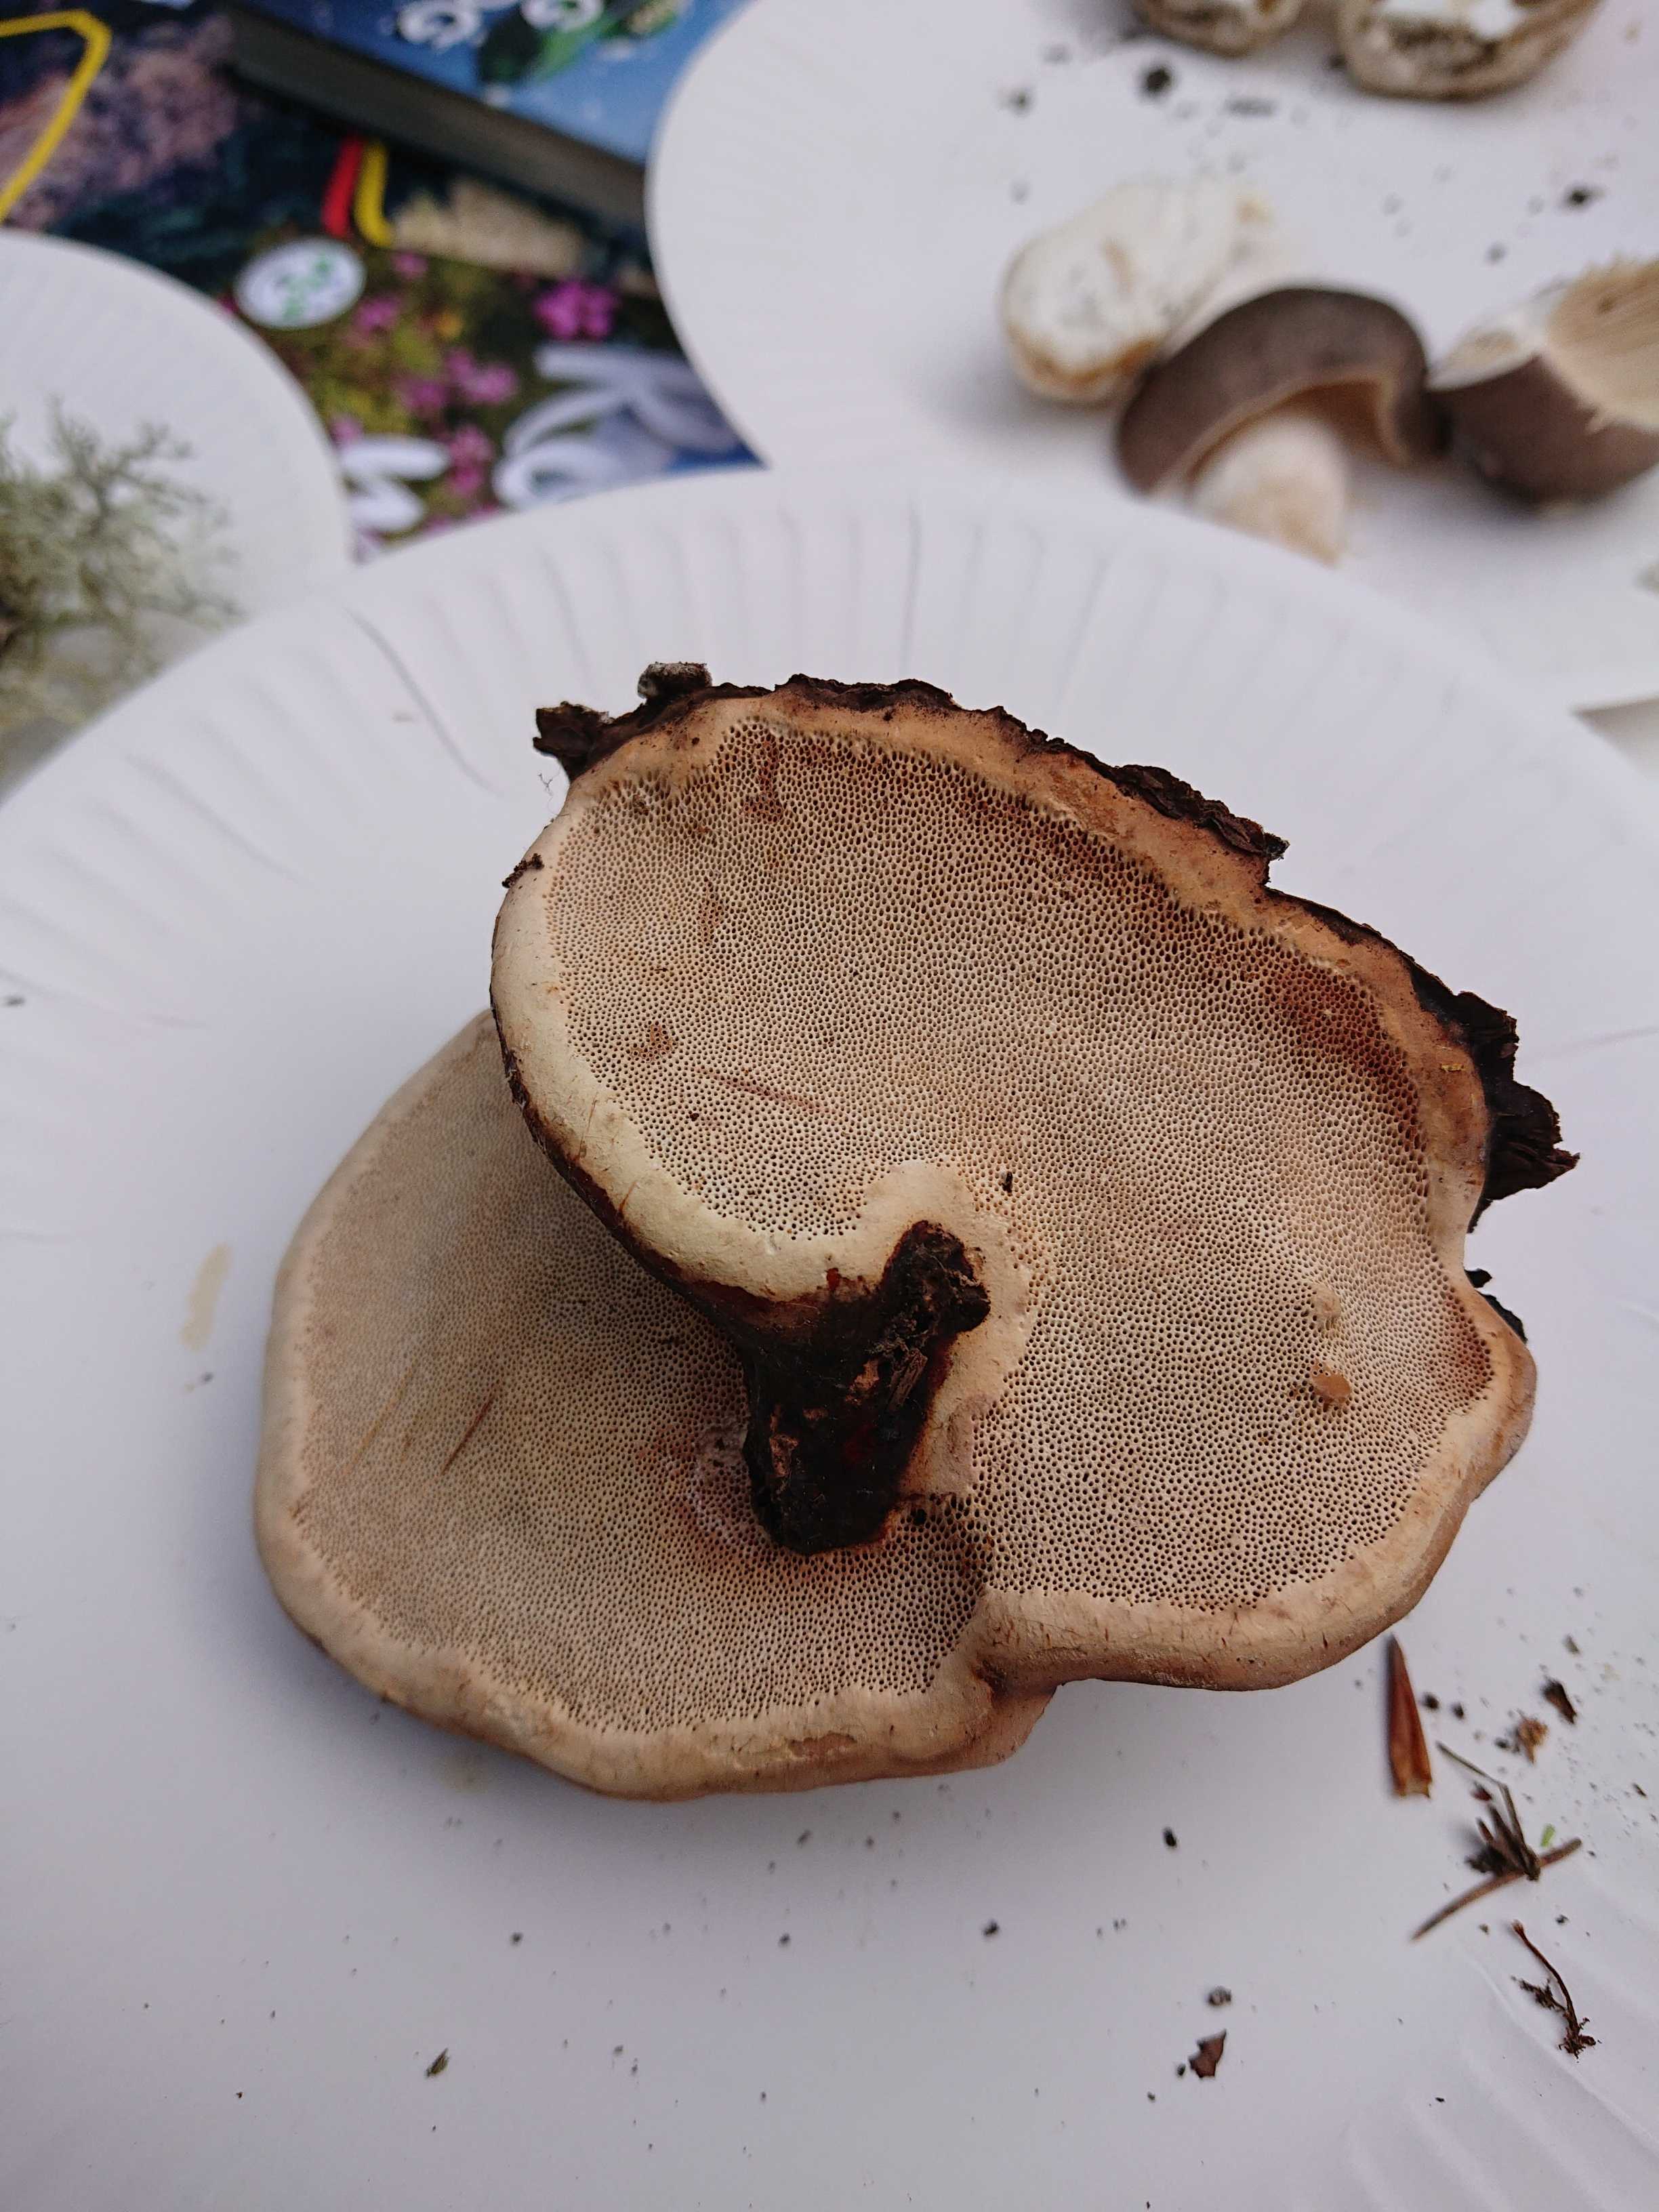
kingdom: Fungi
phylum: Basidiomycota
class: Agaricomycetes
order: Polyporales
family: Fomitopsidaceae
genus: Fomitopsis
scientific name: Fomitopsis pinicola
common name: randbæltet hovporesvamp
